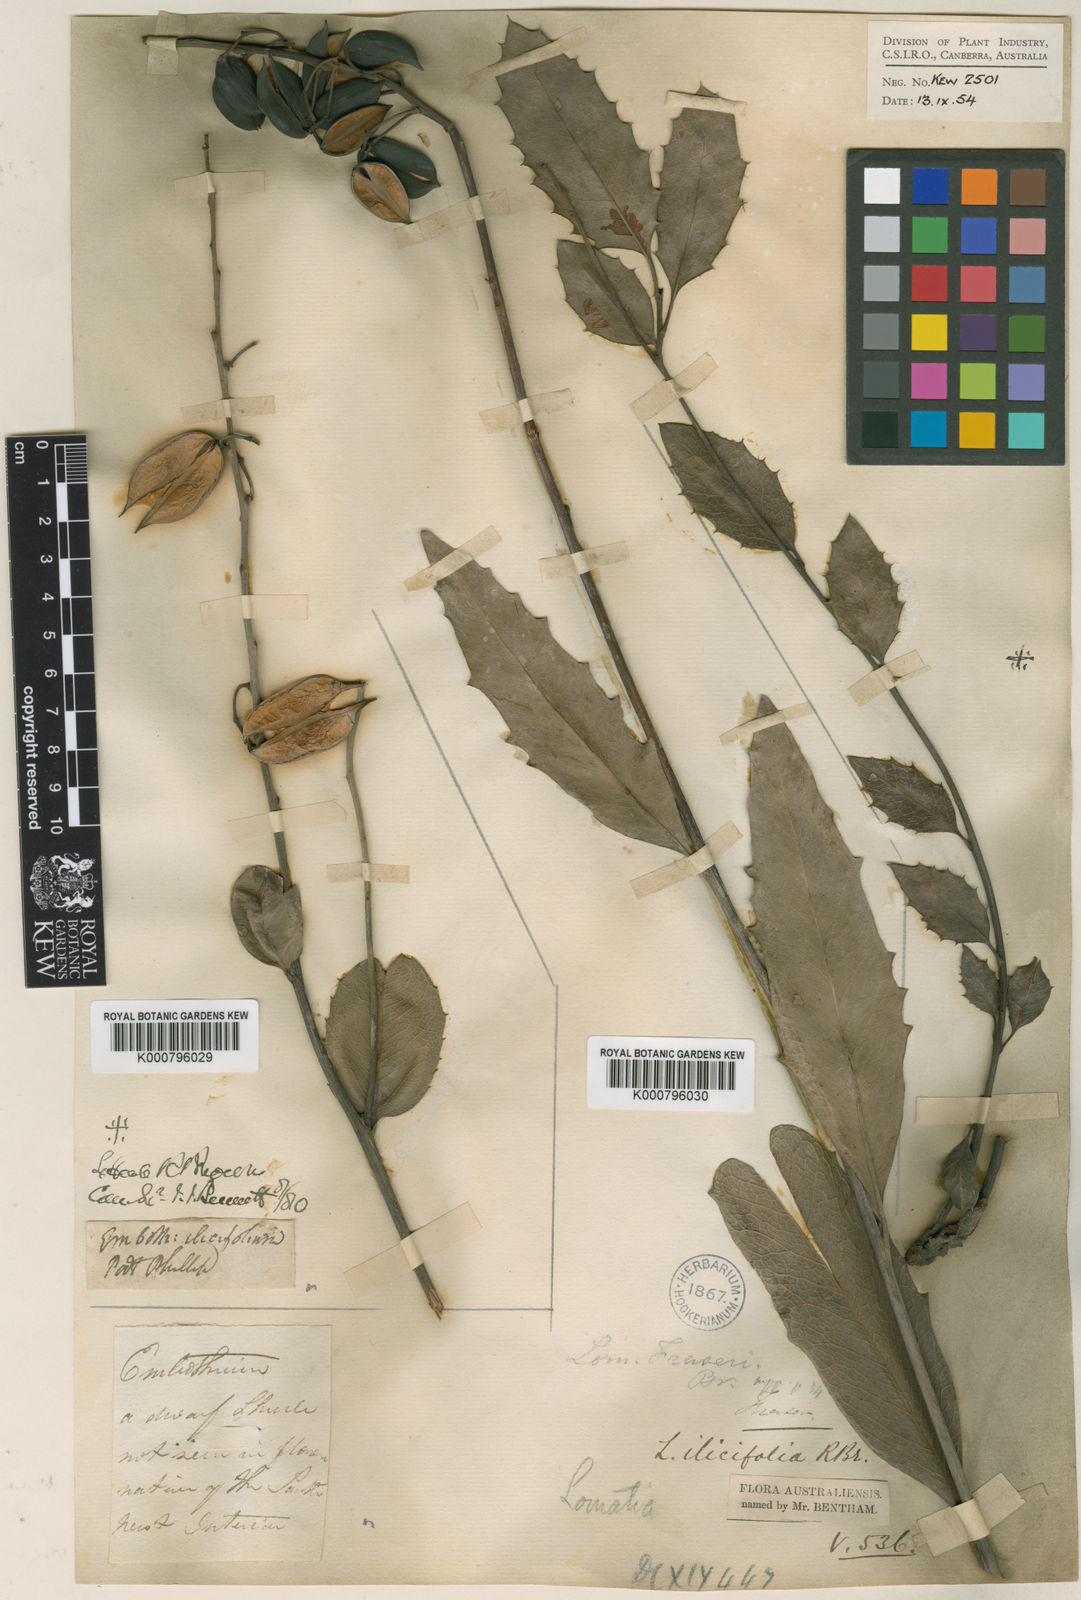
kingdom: Plantae
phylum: Tracheophyta
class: Magnoliopsida
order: Proteales
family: Proteaceae
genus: Lomatia
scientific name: Lomatia ilicifolia
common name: Native-holly
